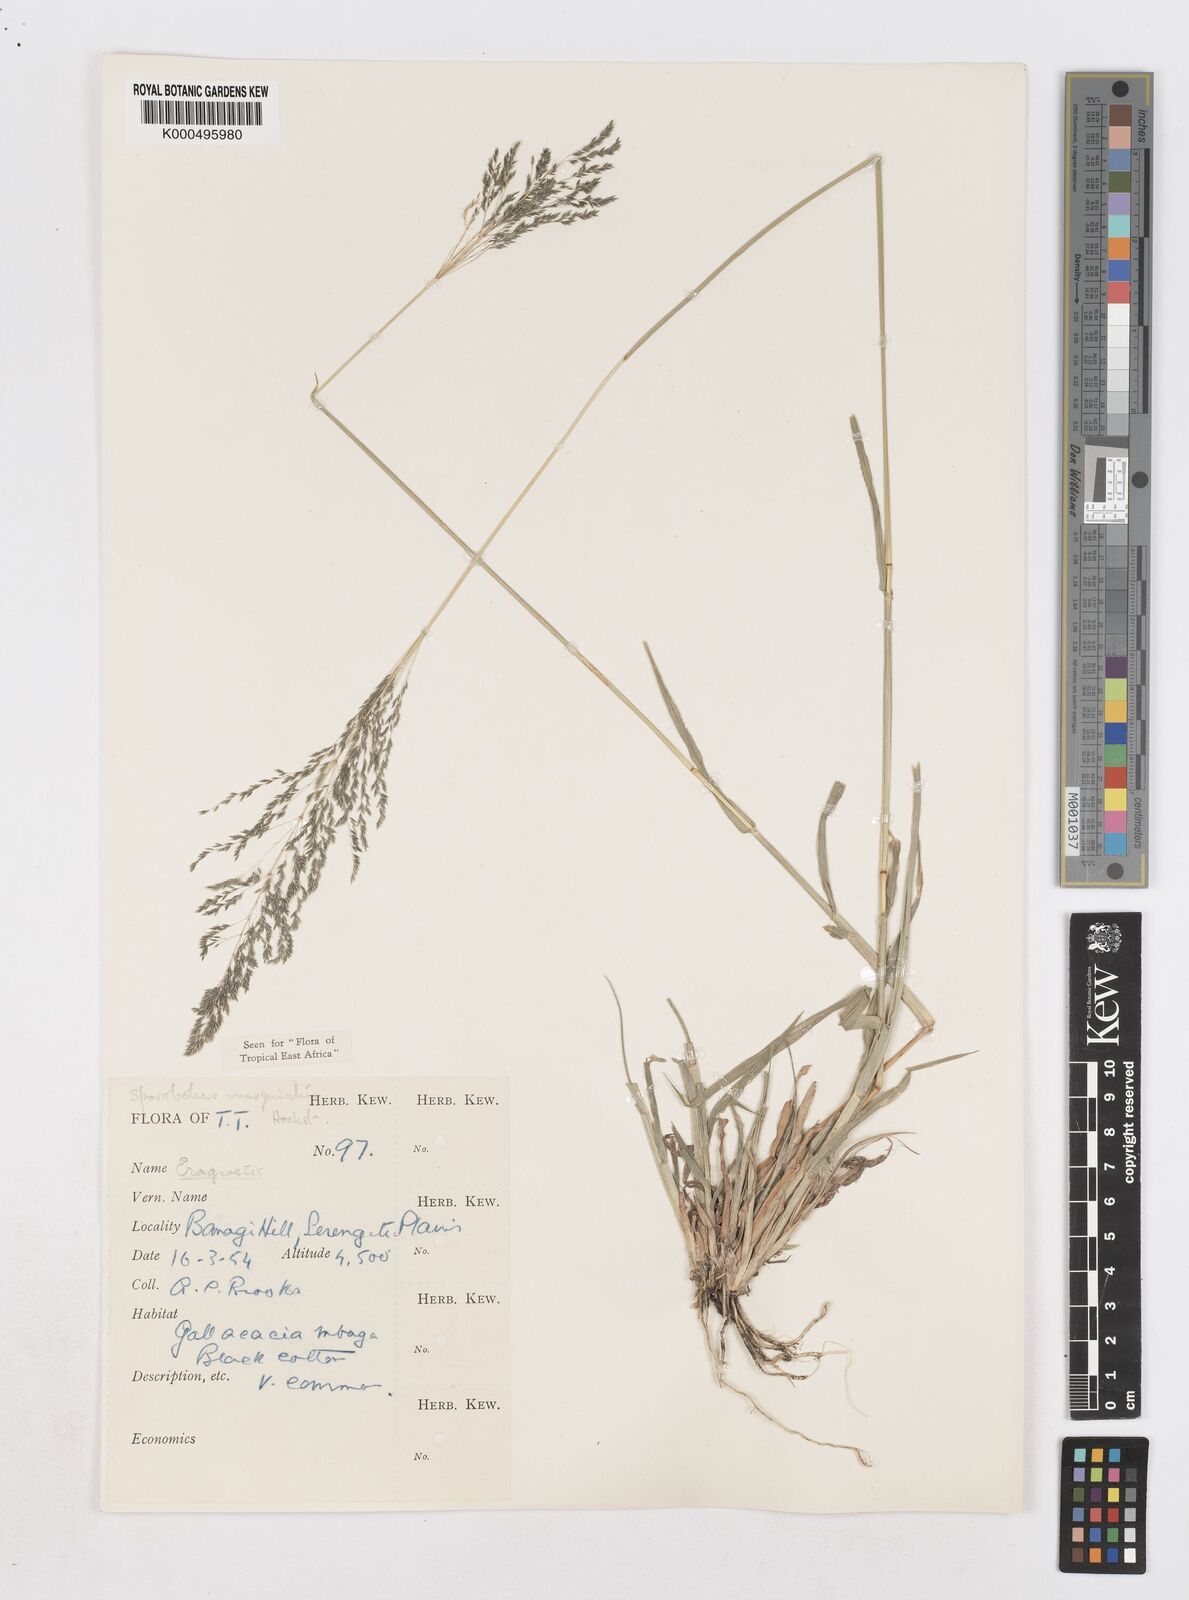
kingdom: Plantae
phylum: Tracheophyta
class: Liliopsida
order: Poales
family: Poaceae
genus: Sporobolus
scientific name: Sporobolus ioclados
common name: Pan dropseed
